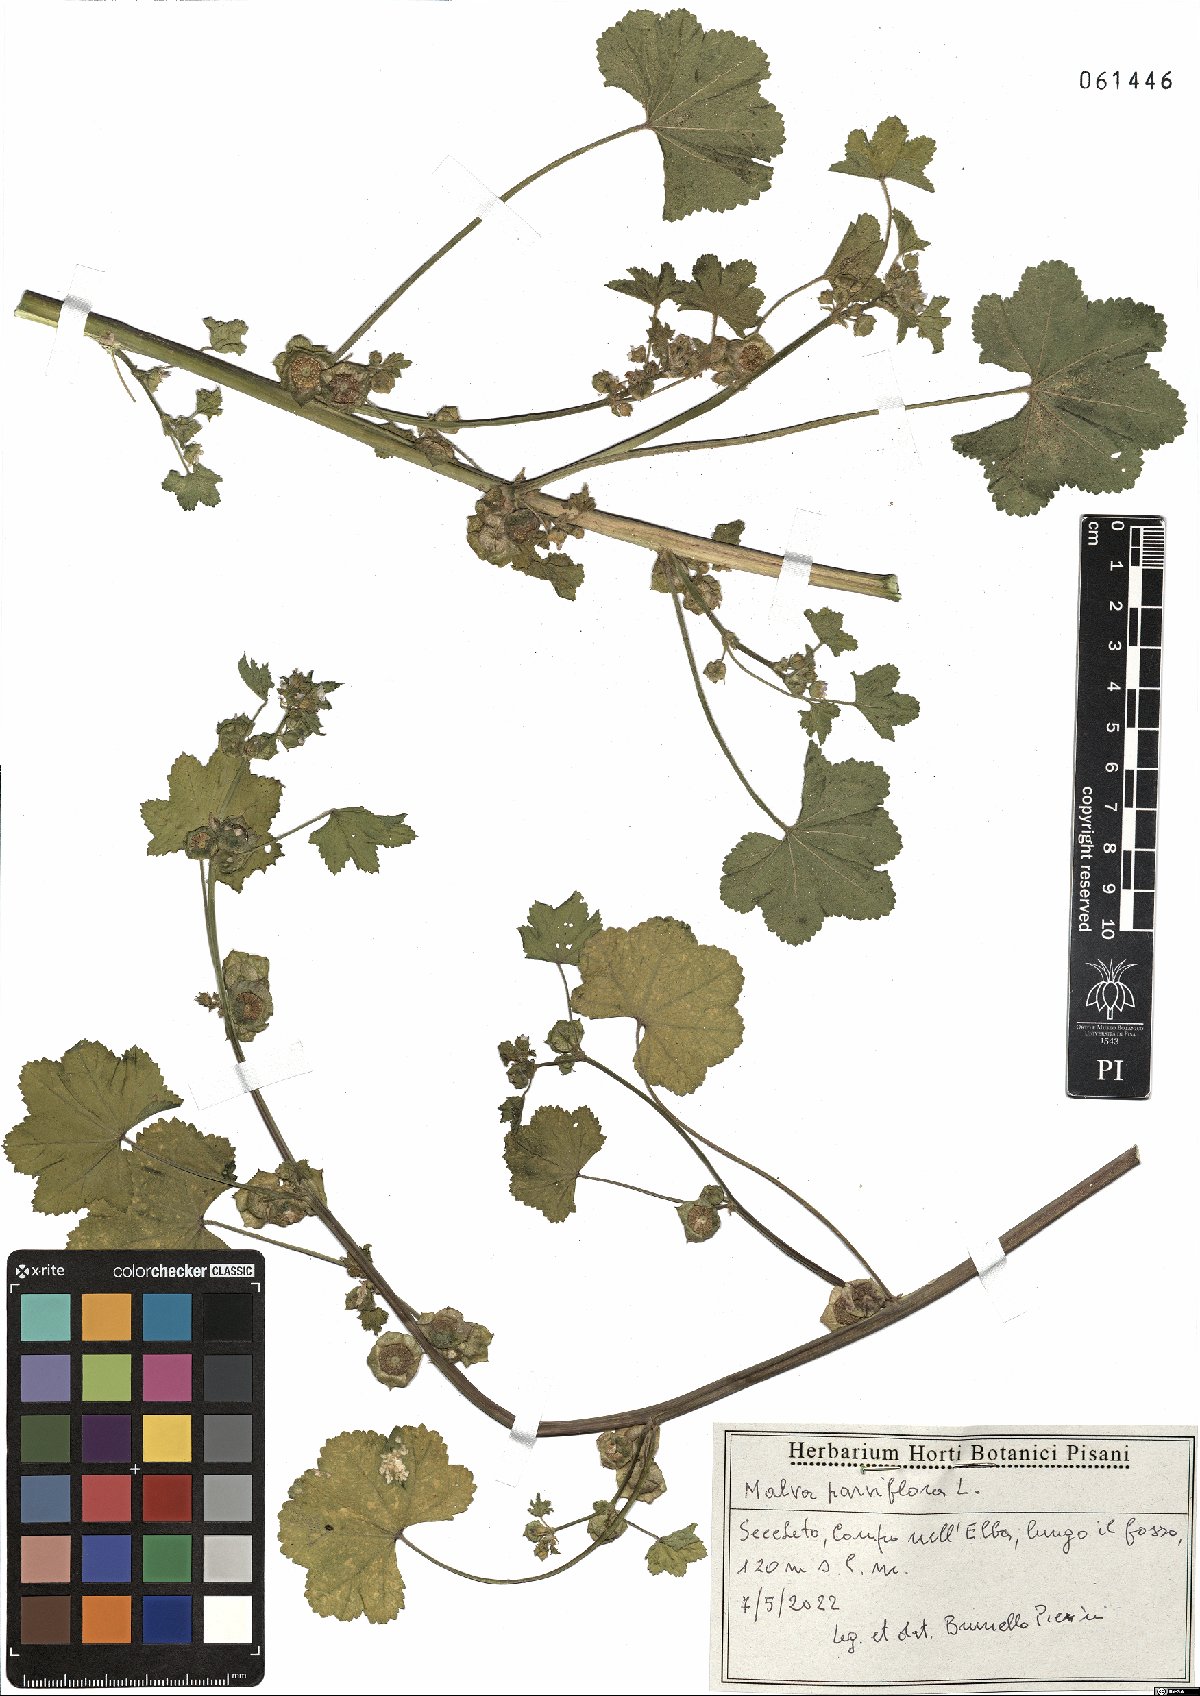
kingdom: Plantae
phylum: Tracheophyta
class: Magnoliopsida
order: Malvales
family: Malvaceae
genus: Malva
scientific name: Malva parviflora
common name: Least mallow
